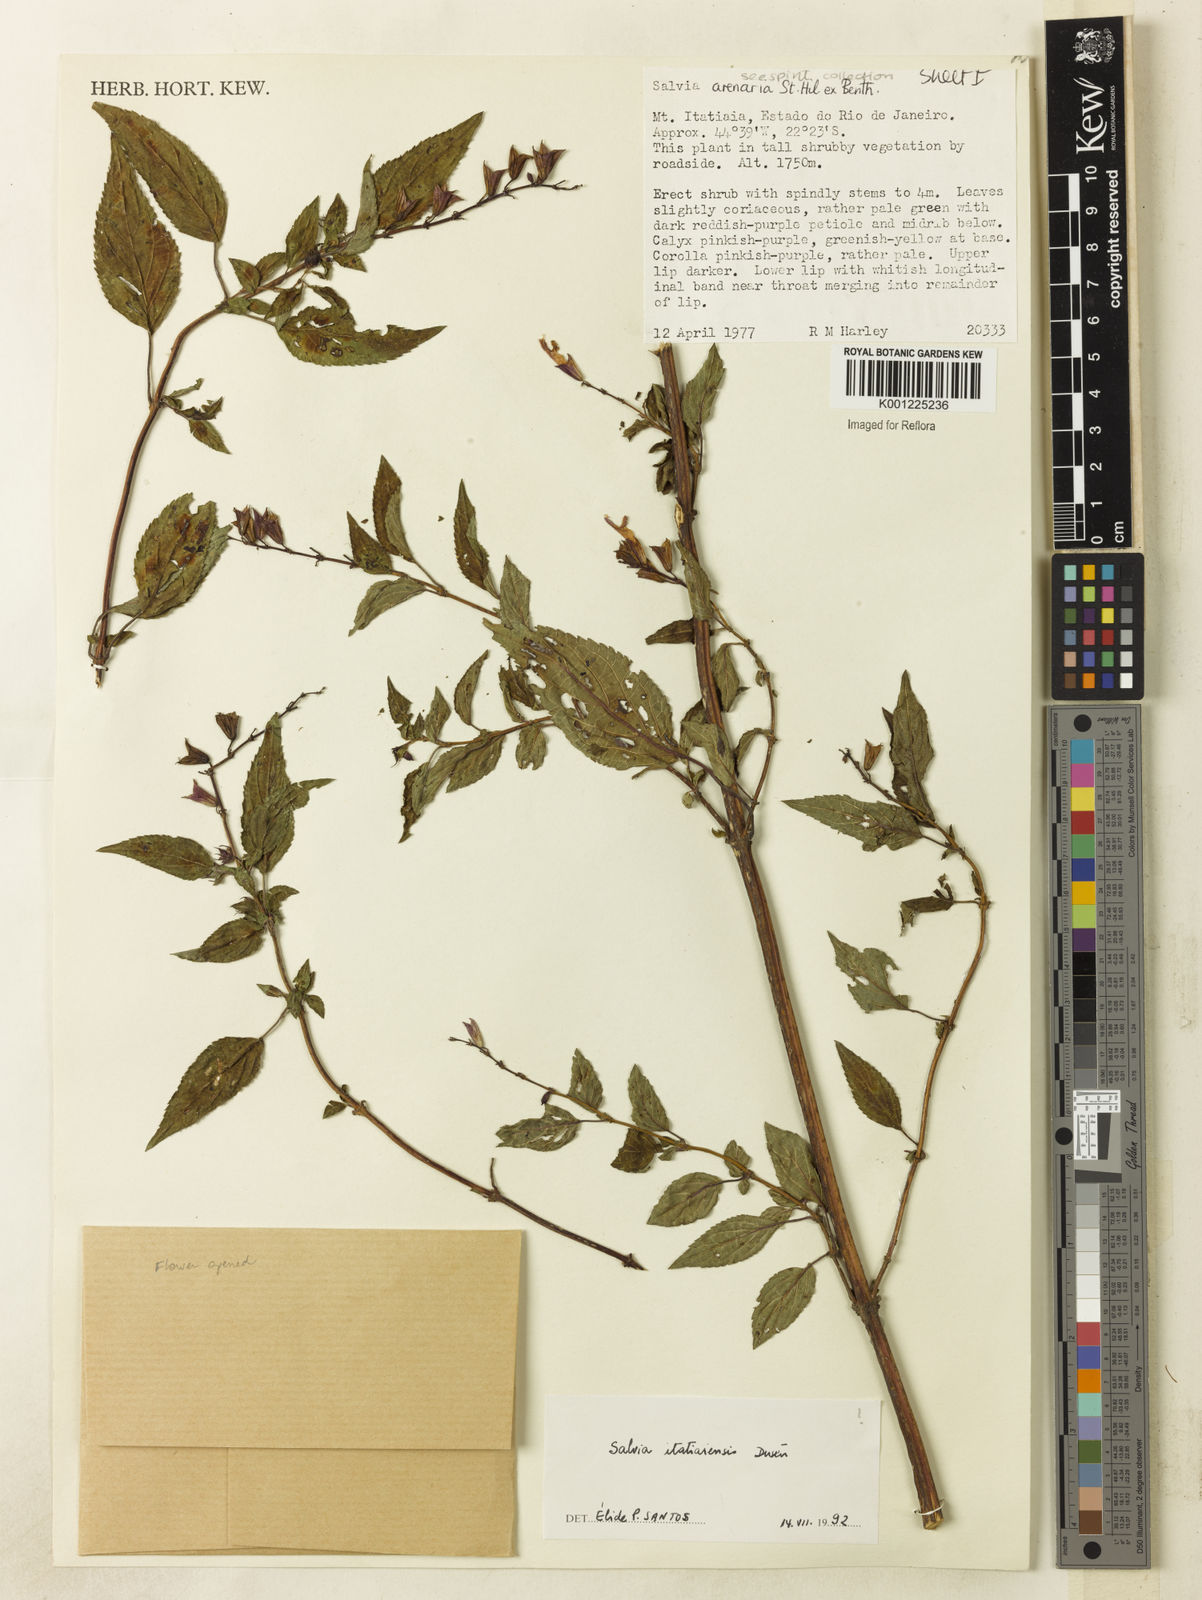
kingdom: Plantae
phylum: Tracheophyta
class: Magnoliopsida
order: Lamiales
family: Lamiaceae
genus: Salvia
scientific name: Salvia
